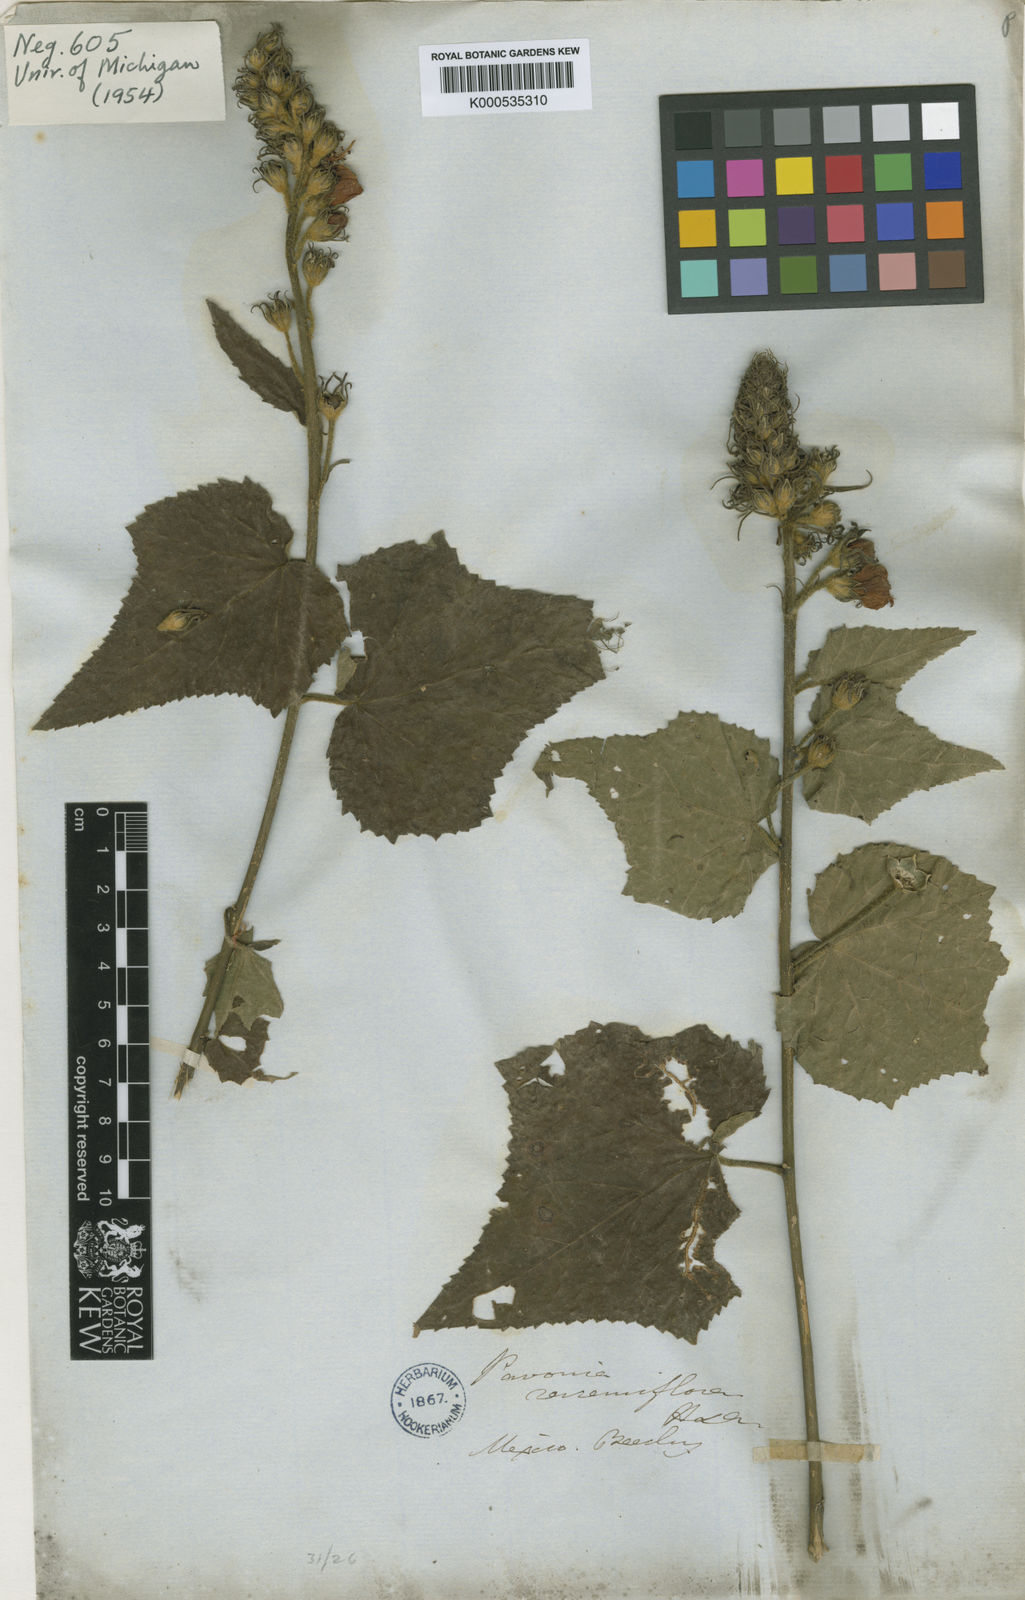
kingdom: Plantae
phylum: Tracheophyta
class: Magnoliopsida
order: Malvales
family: Malvaceae
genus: Pavonia
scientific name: Pavonia pleuranthera
